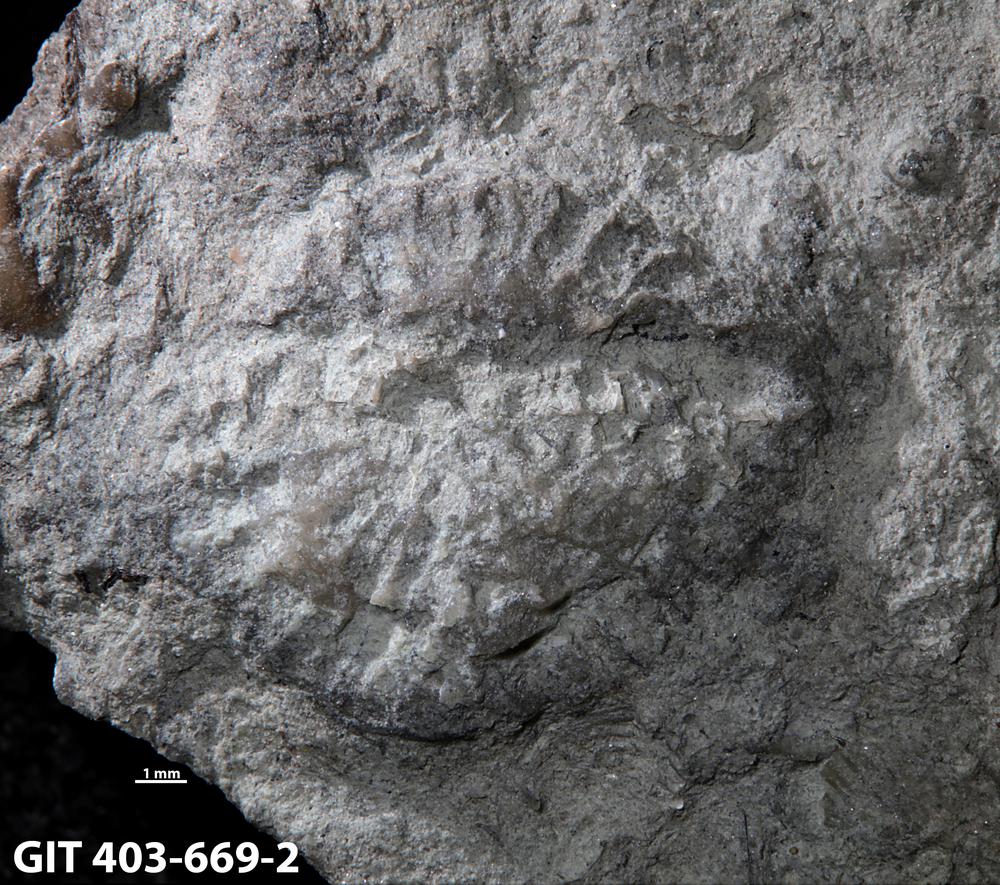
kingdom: Animalia
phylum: Cnidaria
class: Anthozoa
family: Favositidae
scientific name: Favositidae
